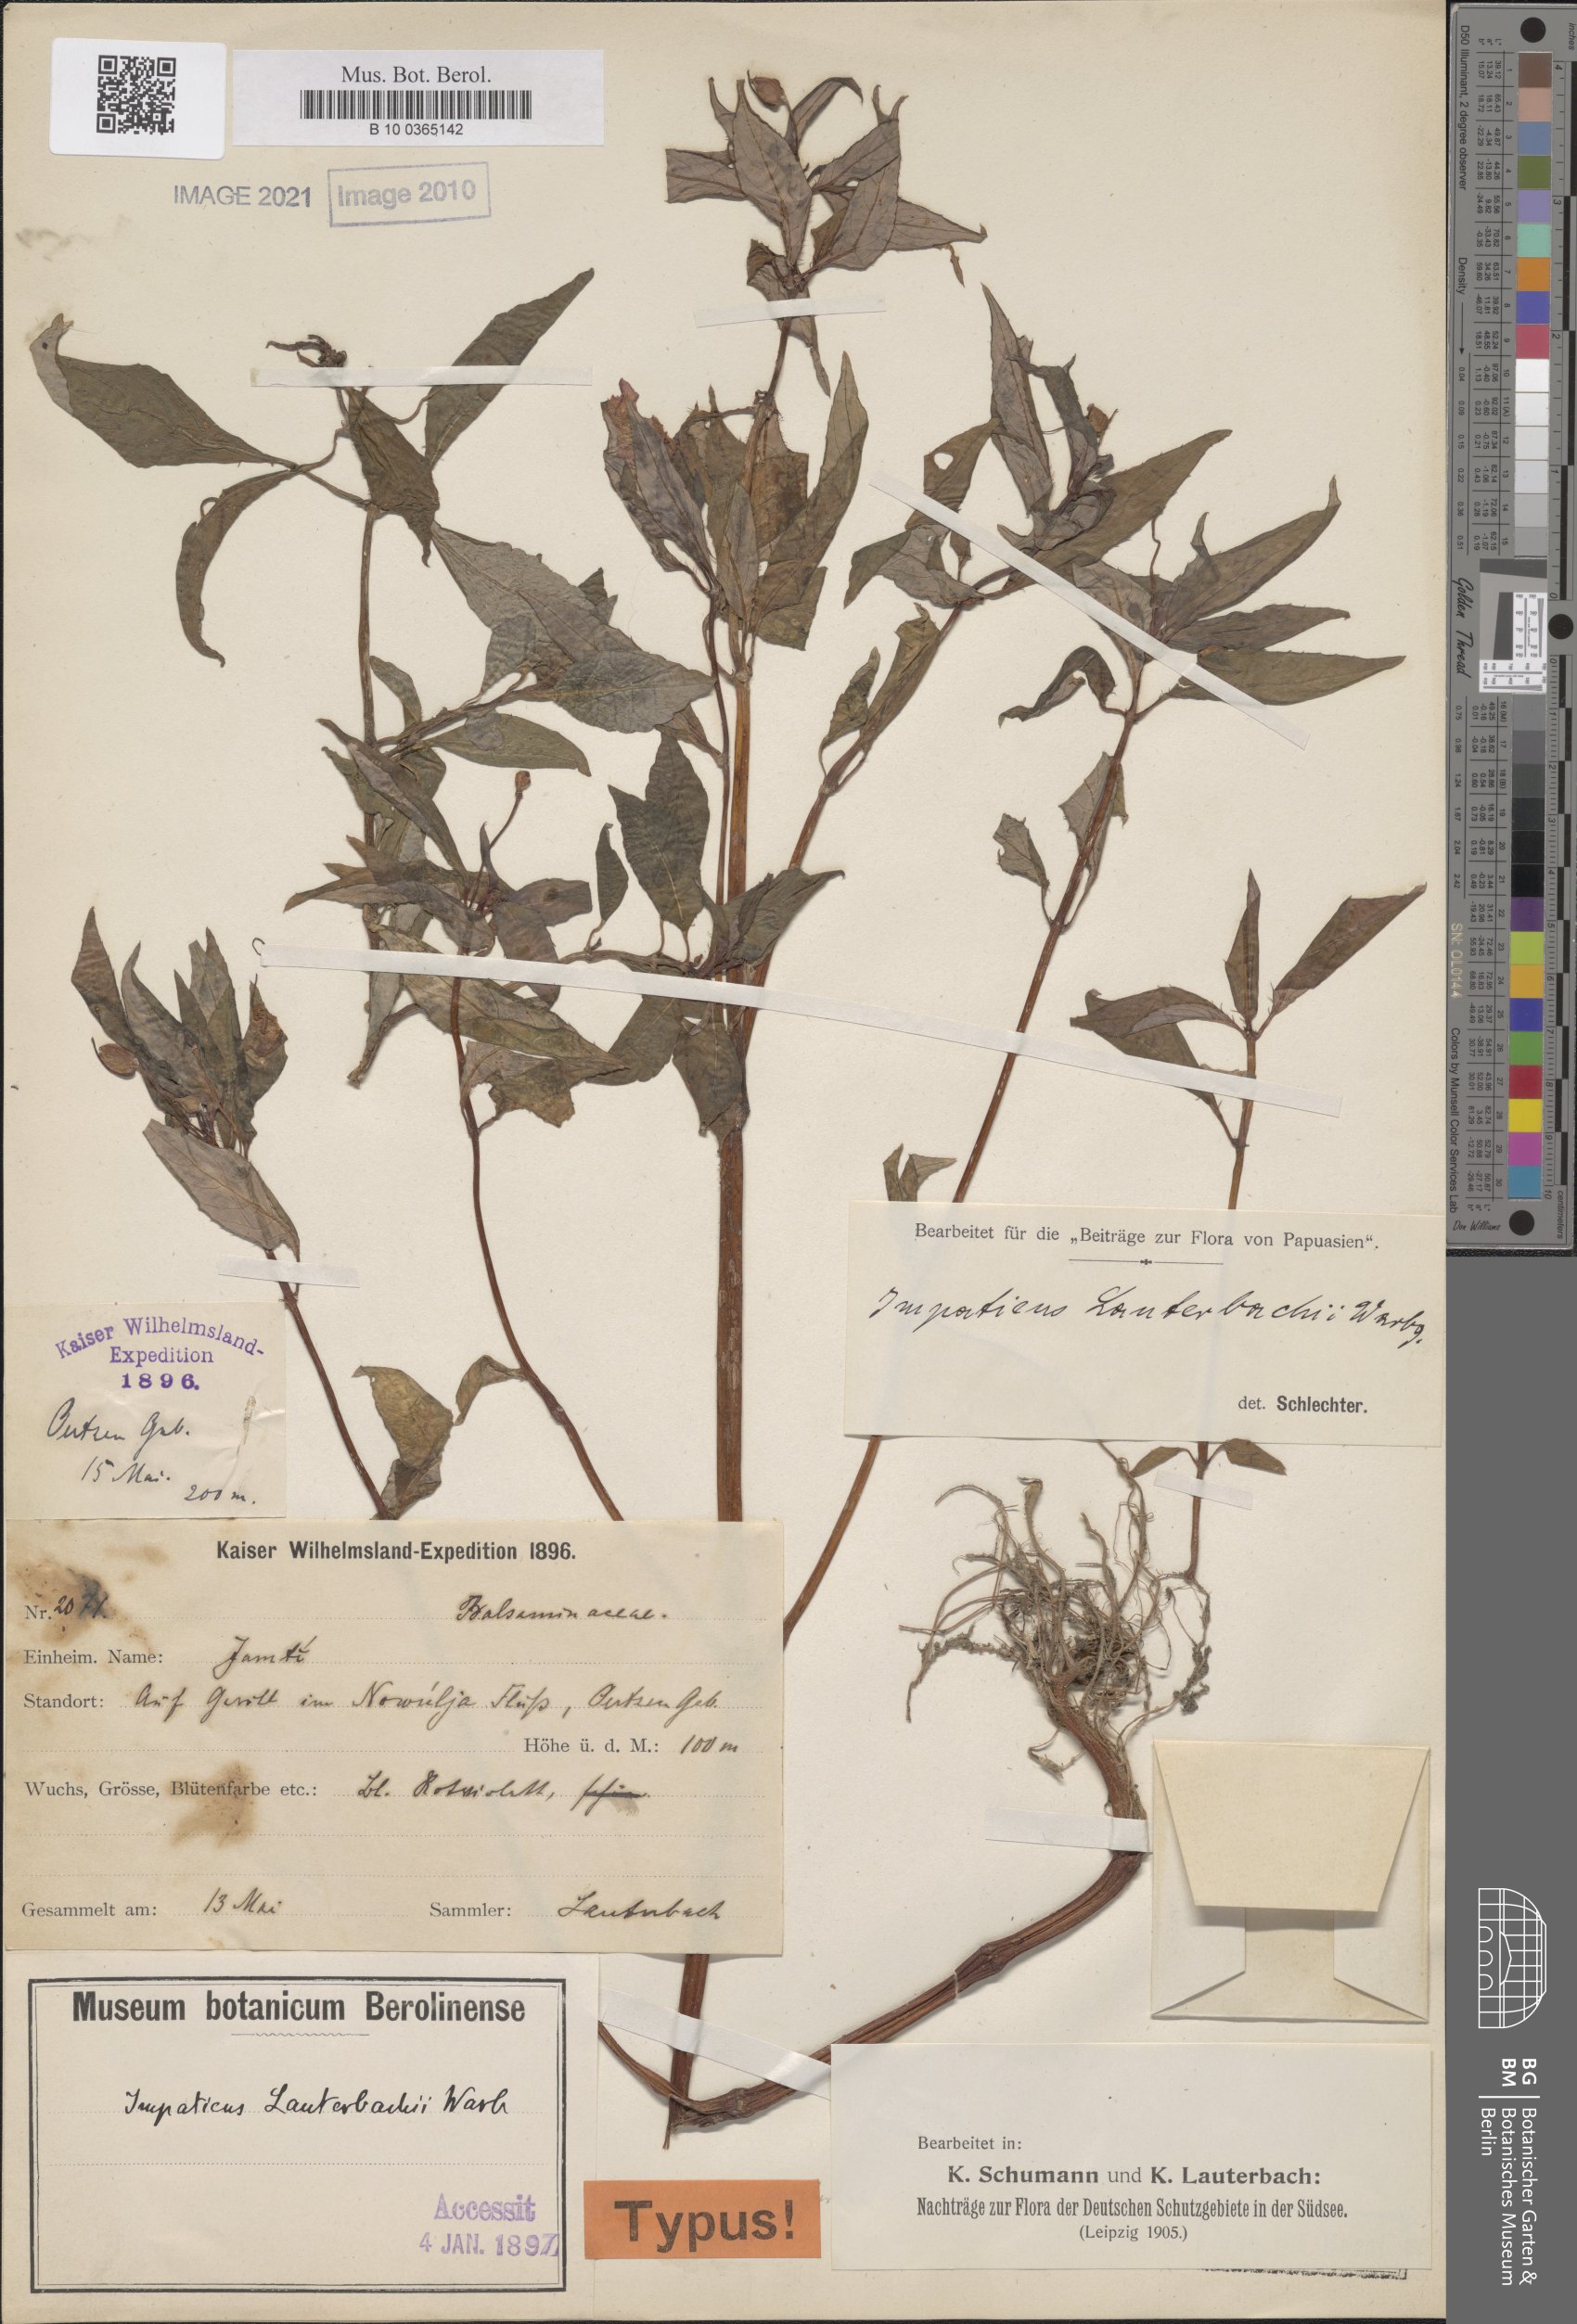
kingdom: Plantae
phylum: Tracheophyta
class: Magnoliopsida
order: Ericales
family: Balsaminaceae
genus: Impatiens
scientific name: Impatiens hawkeri
